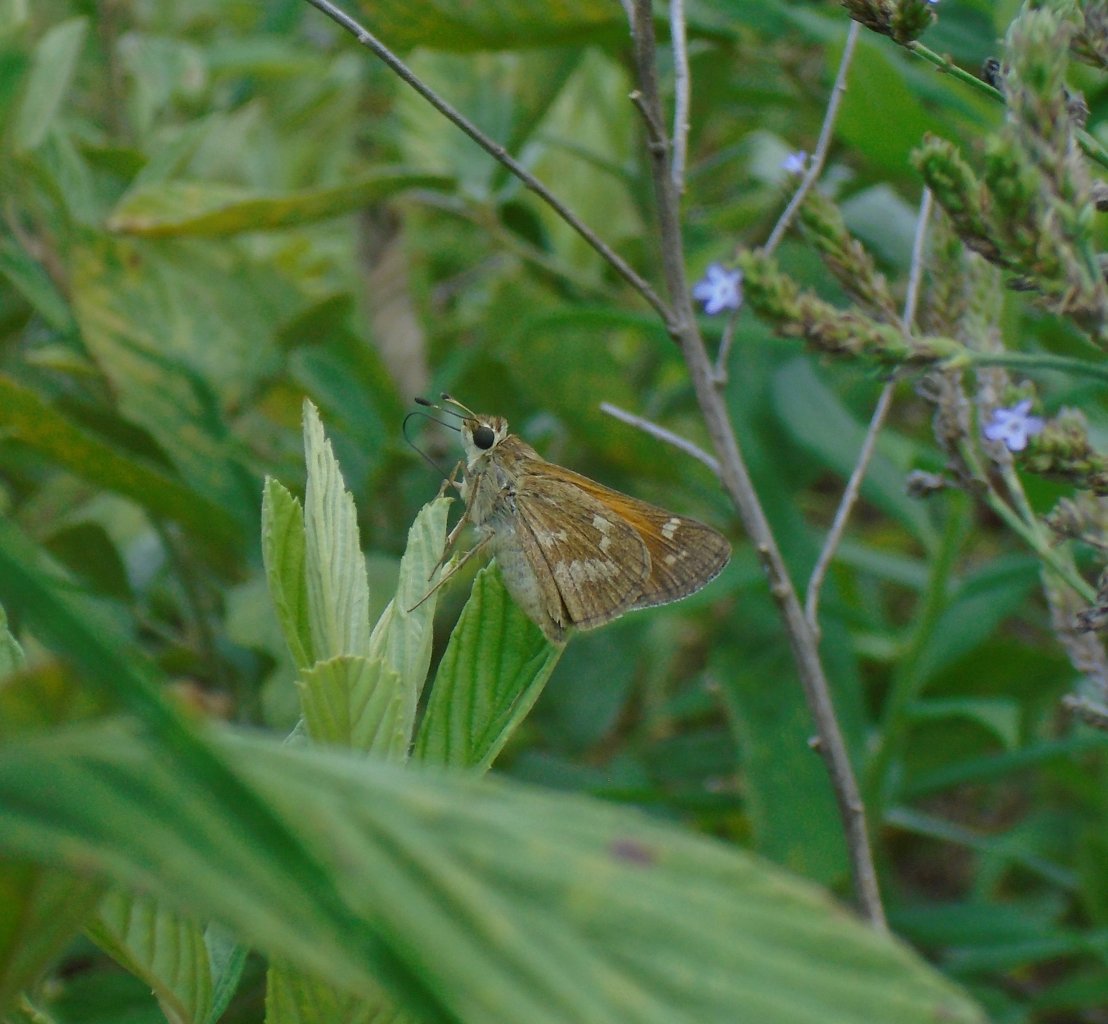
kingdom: Animalia
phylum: Arthropoda
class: Insecta
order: Lepidoptera
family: Hesperiidae
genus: Atalopedes
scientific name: Atalopedes campestris
